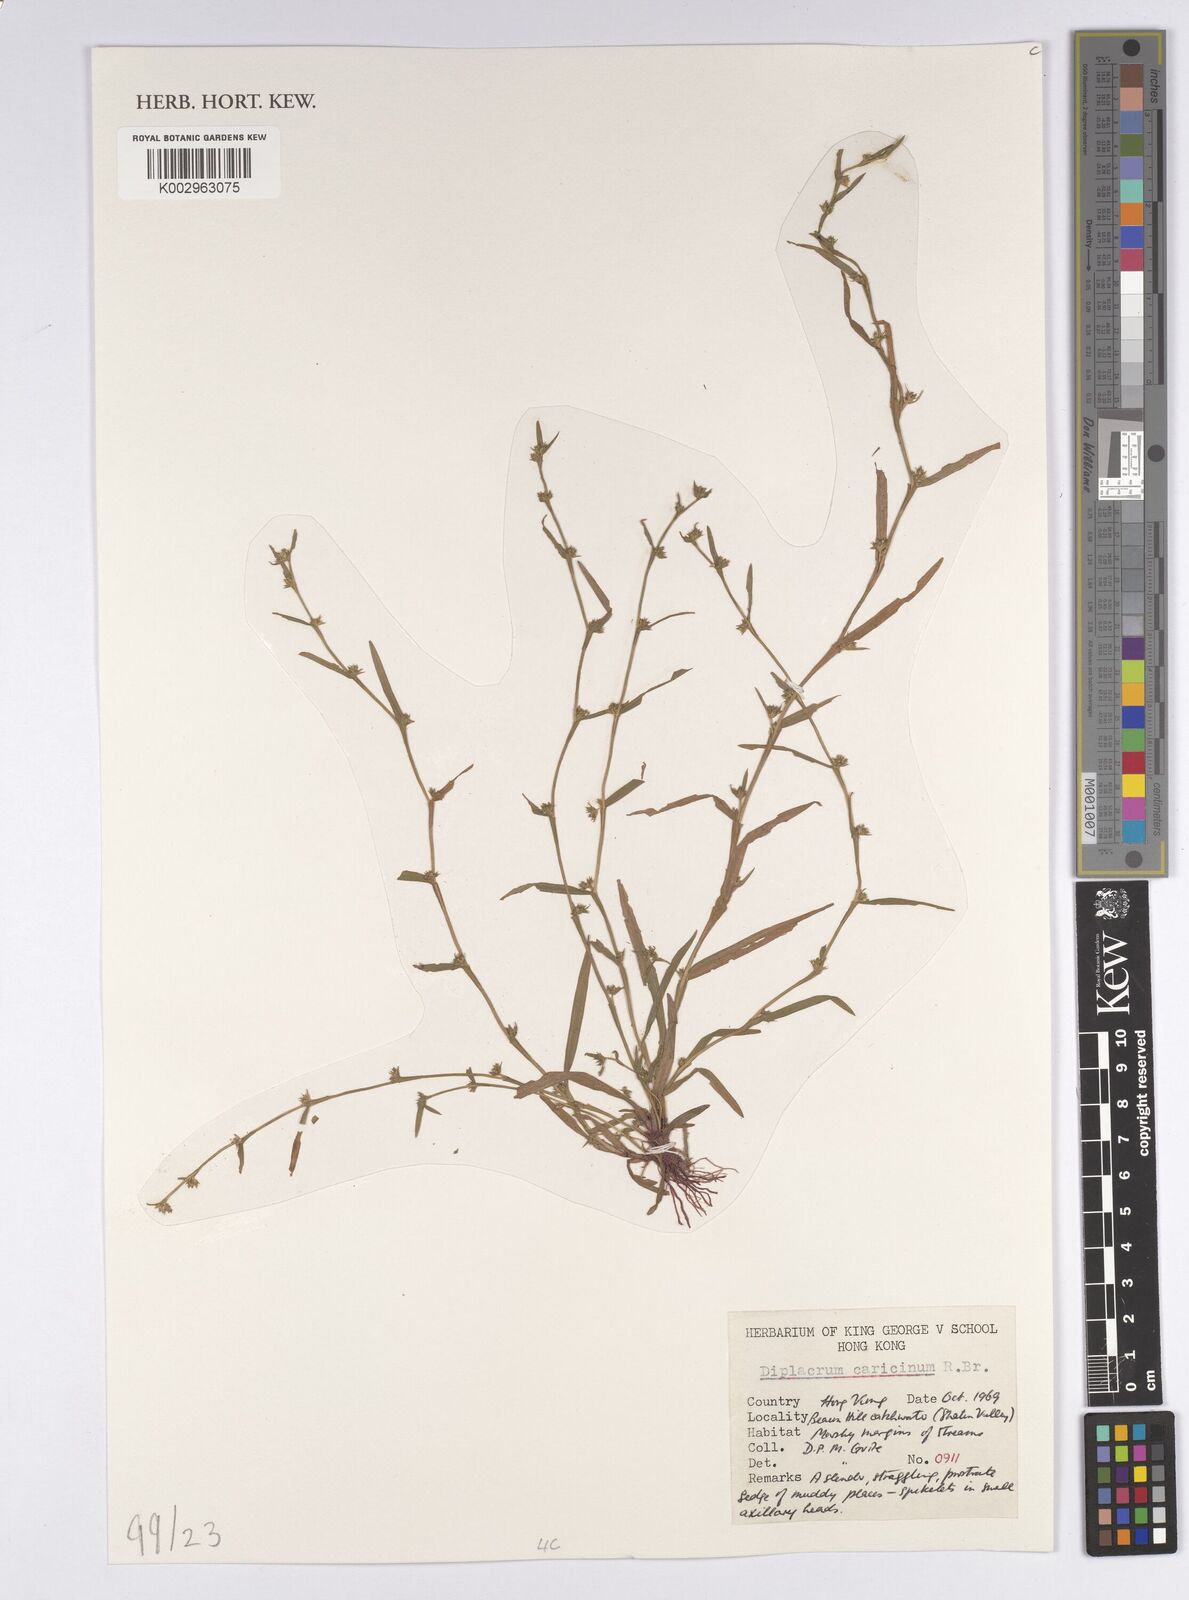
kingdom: Plantae
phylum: Tracheophyta
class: Liliopsida
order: Poales
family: Cyperaceae
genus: Diplacrum
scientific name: Diplacrum caricinum
